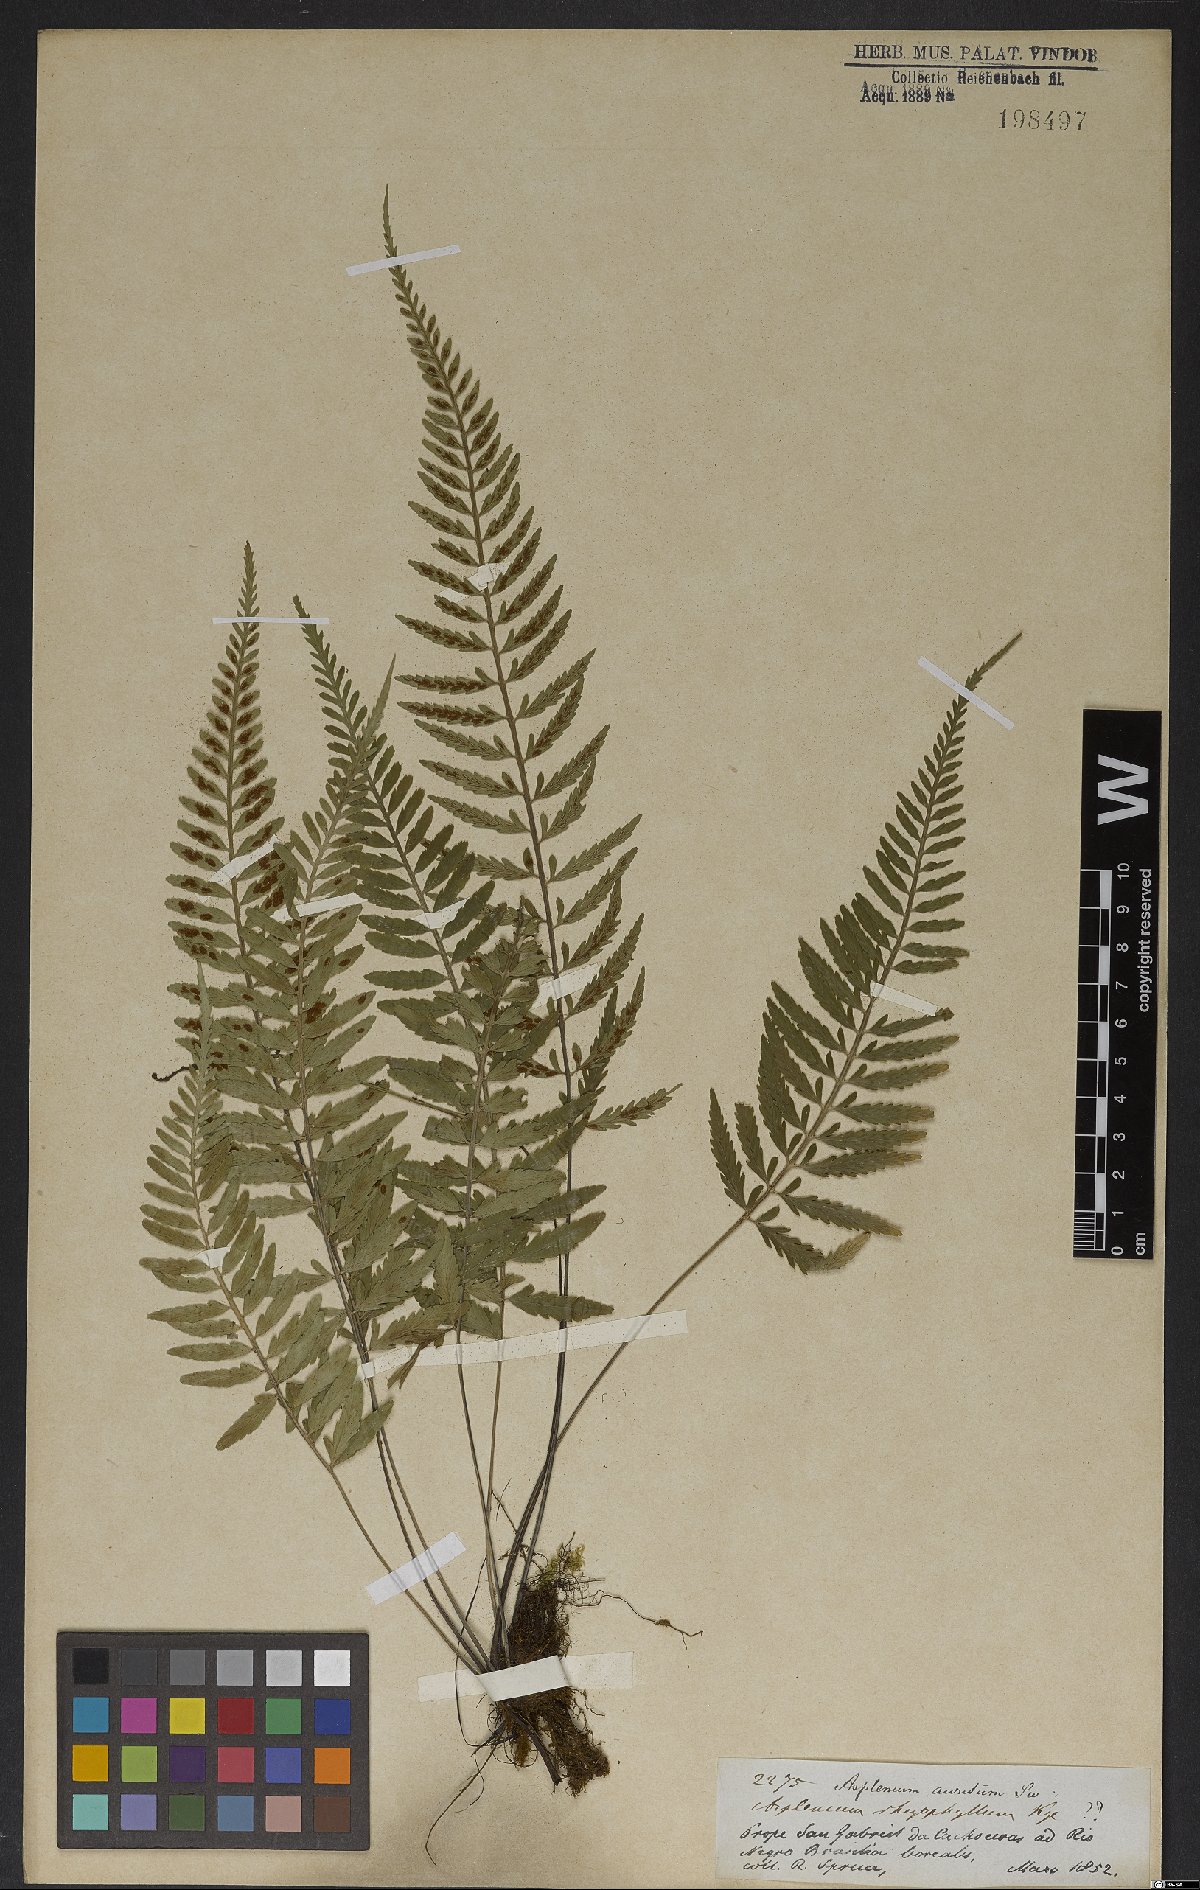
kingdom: Plantae
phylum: Tracheophyta
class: Polypodiopsida
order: Polypodiales
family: Aspleniaceae
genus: Asplenium
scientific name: Asplenium sulcatum
